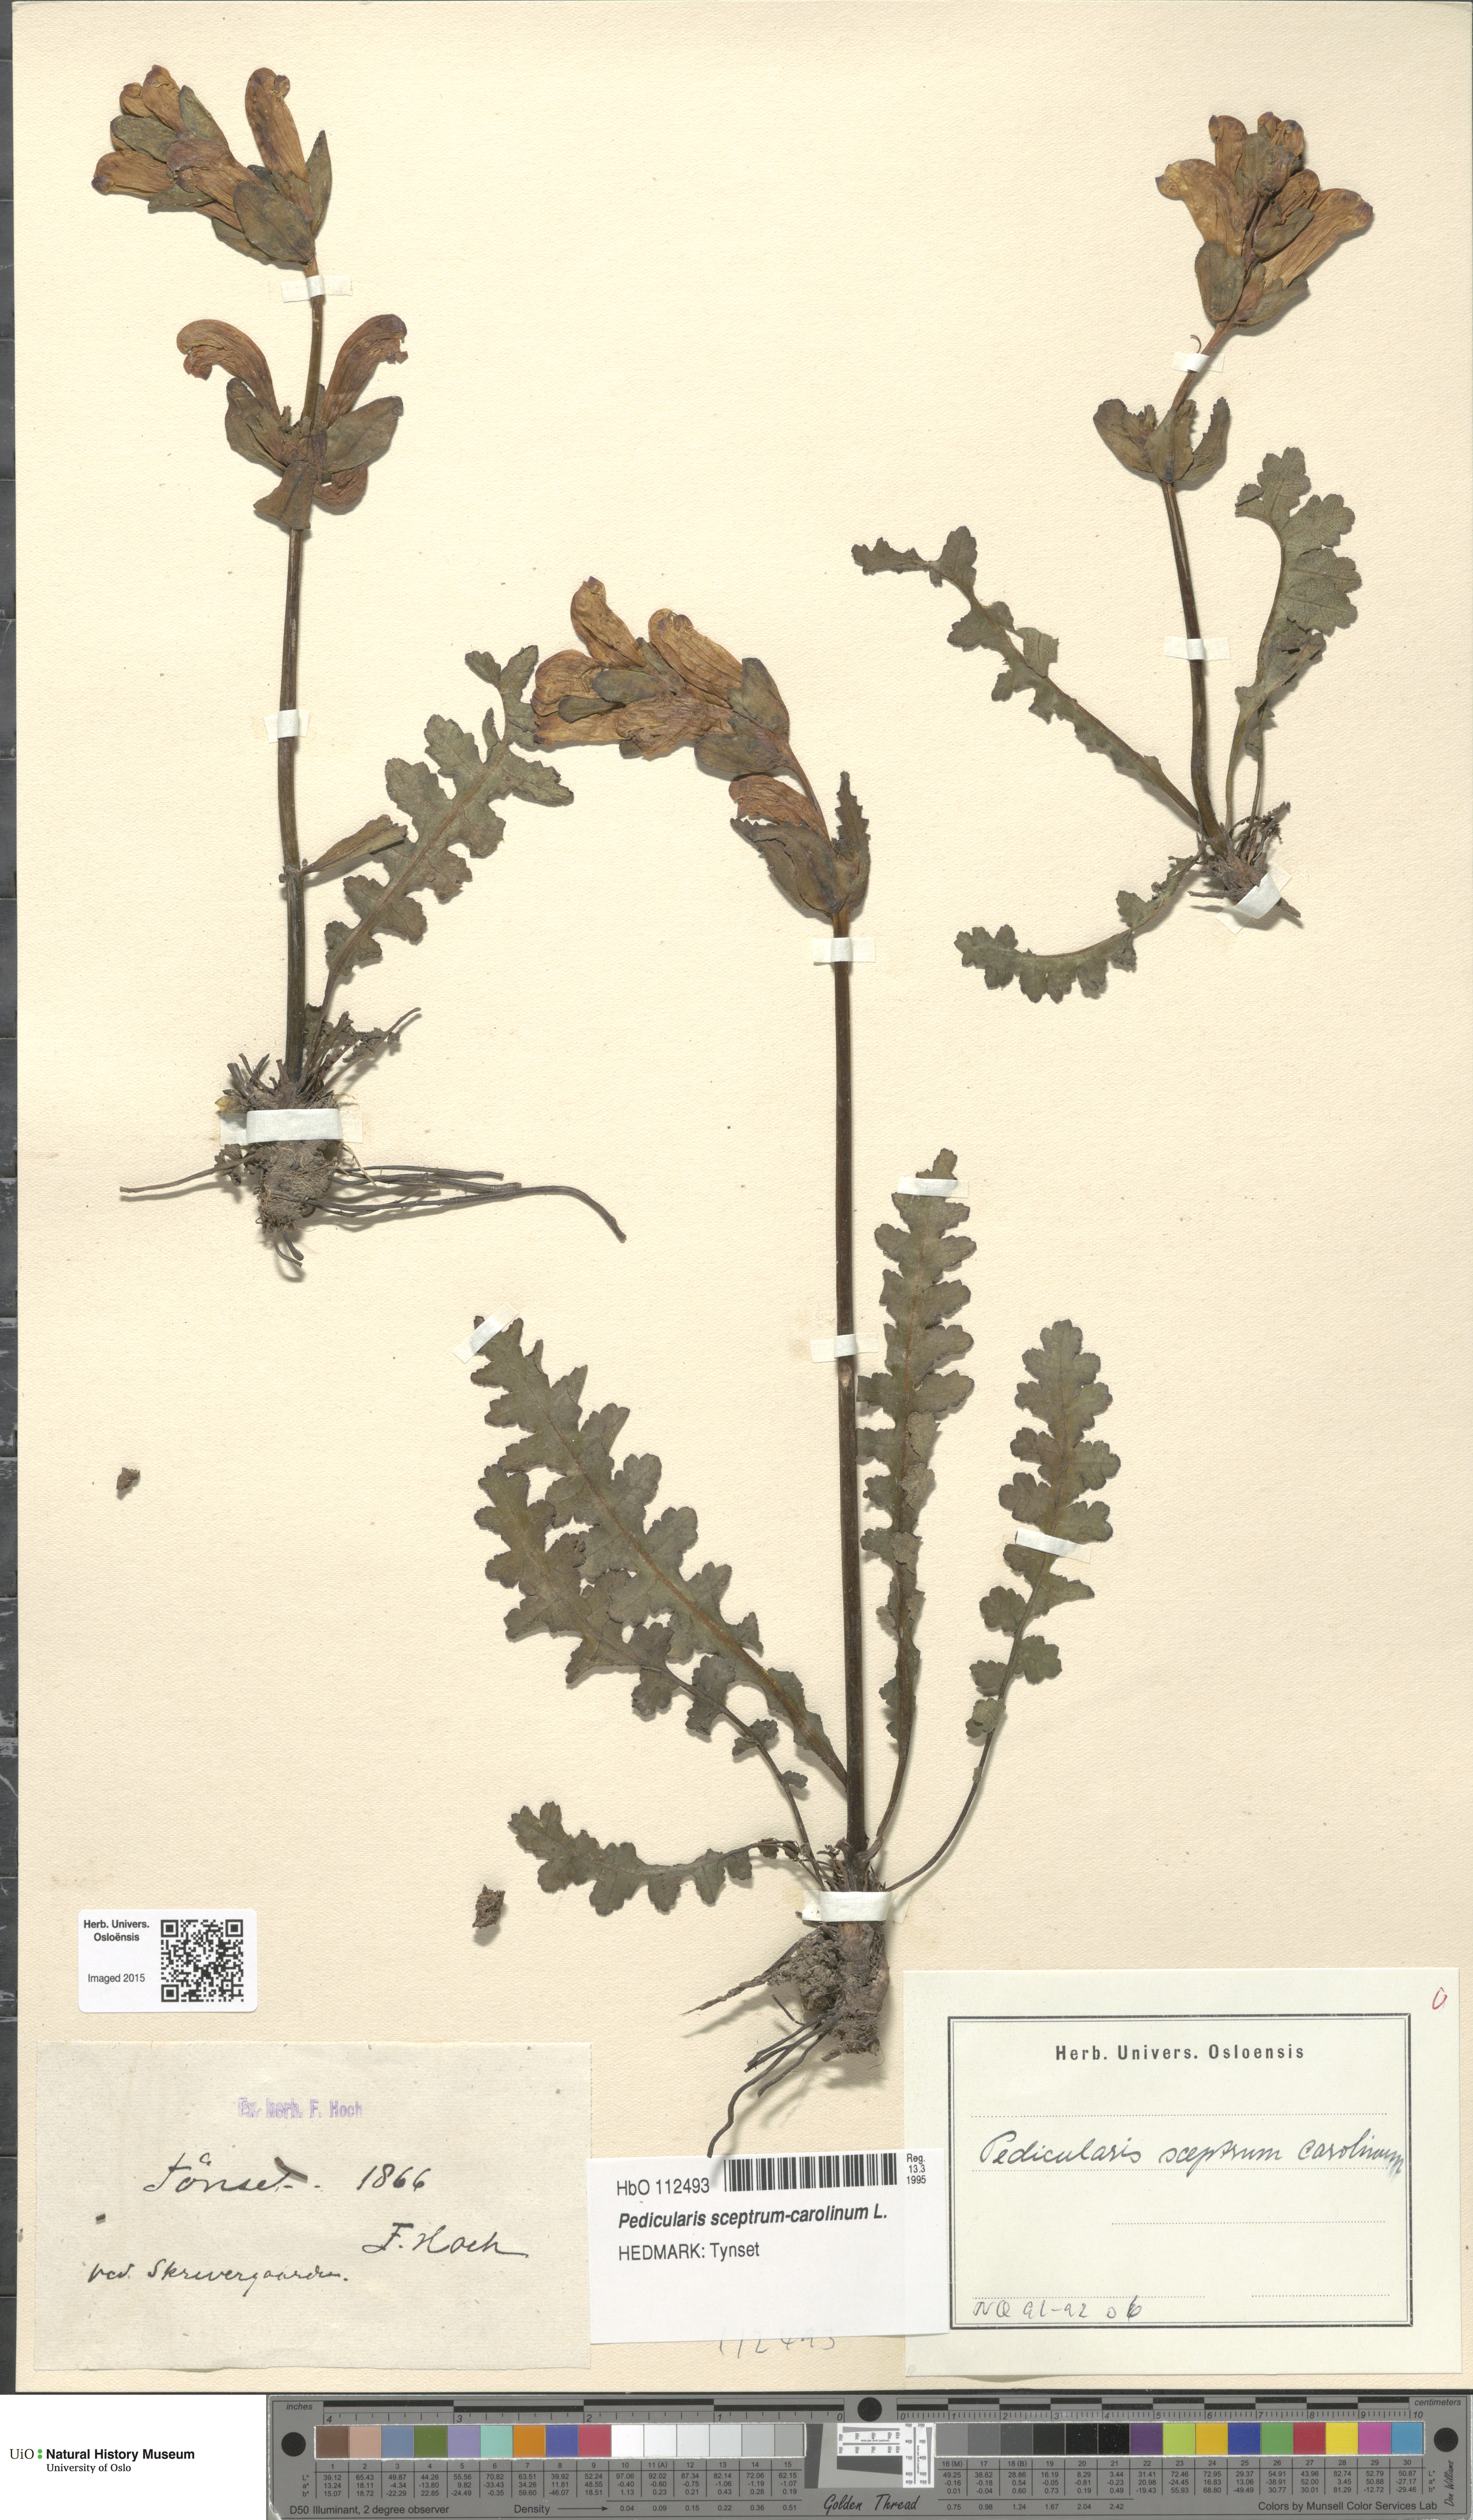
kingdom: Plantae
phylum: Tracheophyta
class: Magnoliopsida
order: Lamiales
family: Orobanchaceae
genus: Pedicularis
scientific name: Pedicularis sceptrum-carolinum
